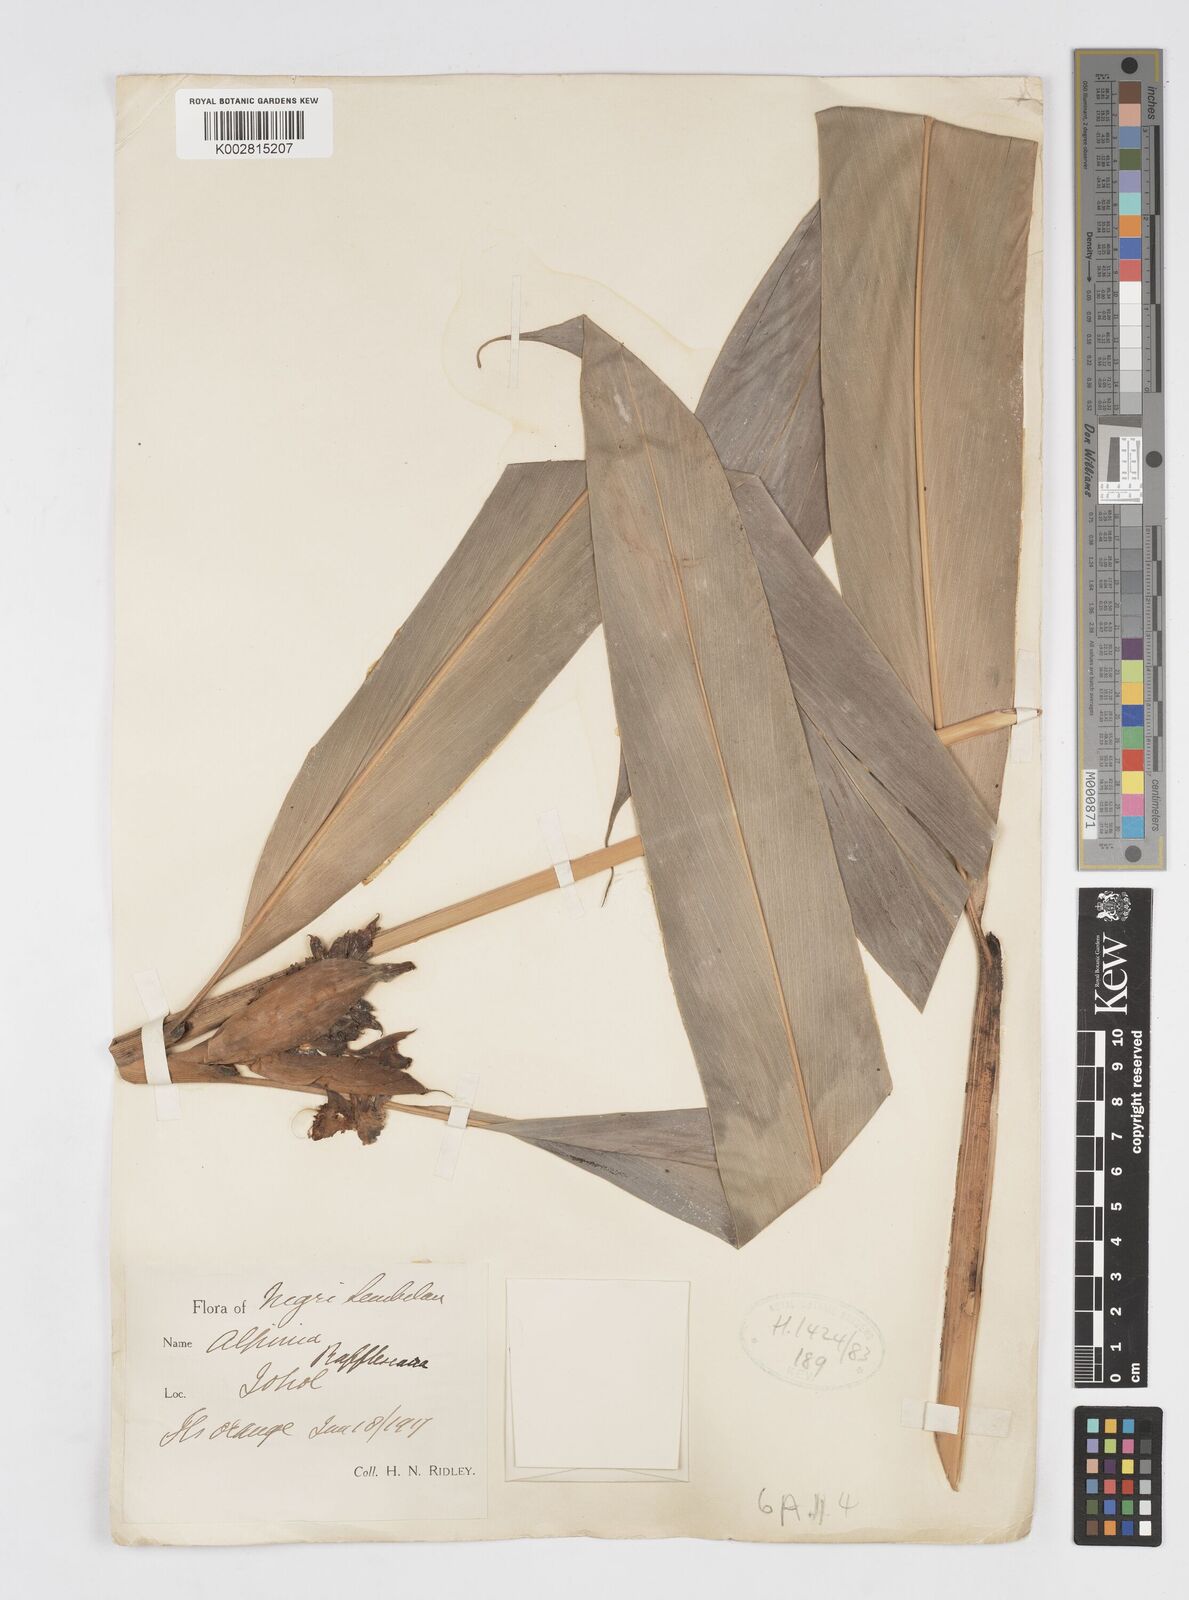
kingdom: Plantae
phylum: Tracheophyta
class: Liliopsida
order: Zingiberales
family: Zingiberaceae
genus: Alpinia
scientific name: Alpinia rafflesiana
